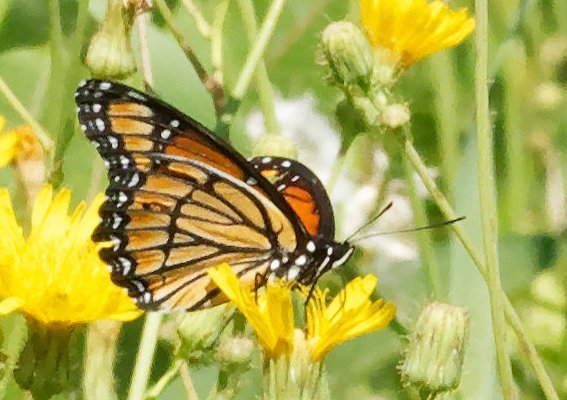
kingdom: Animalia
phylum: Arthropoda
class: Insecta
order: Lepidoptera
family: Nymphalidae
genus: Limenitis
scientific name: Limenitis archippus
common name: Viceroy
